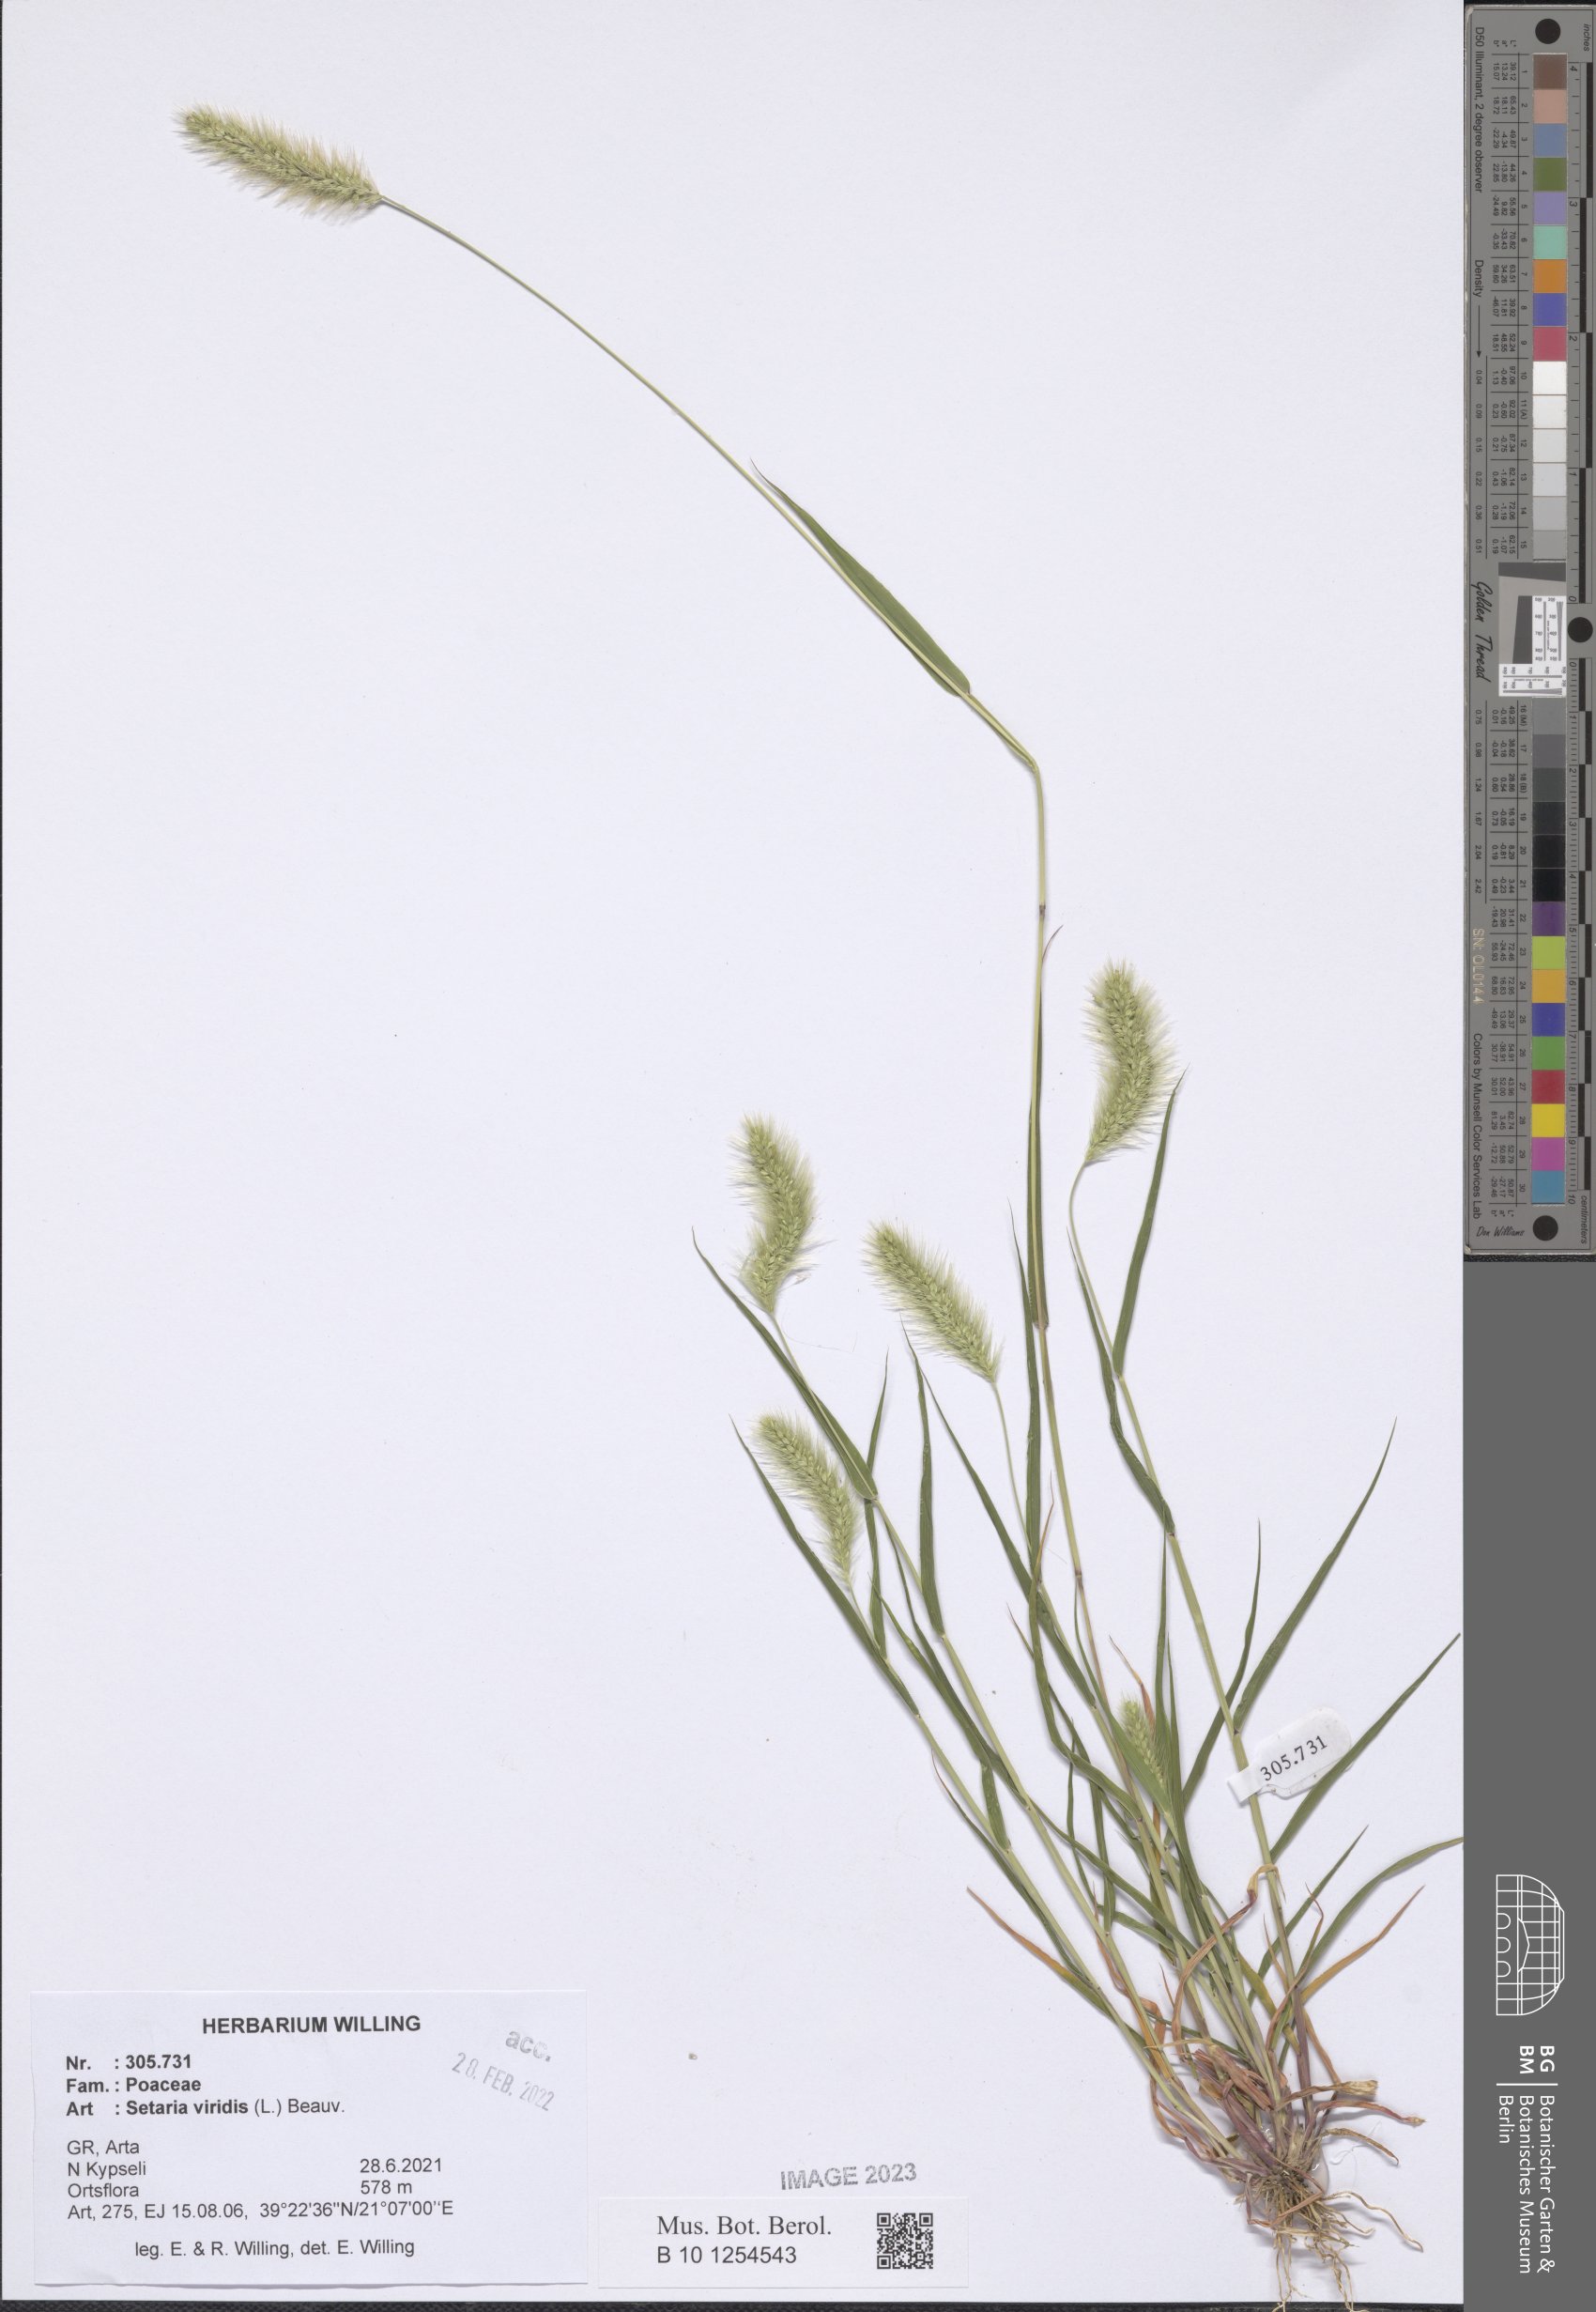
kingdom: Plantae
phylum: Tracheophyta
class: Liliopsida
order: Poales
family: Poaceae
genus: Setaria
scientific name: Setaria viridis
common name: Green bristlegrass
